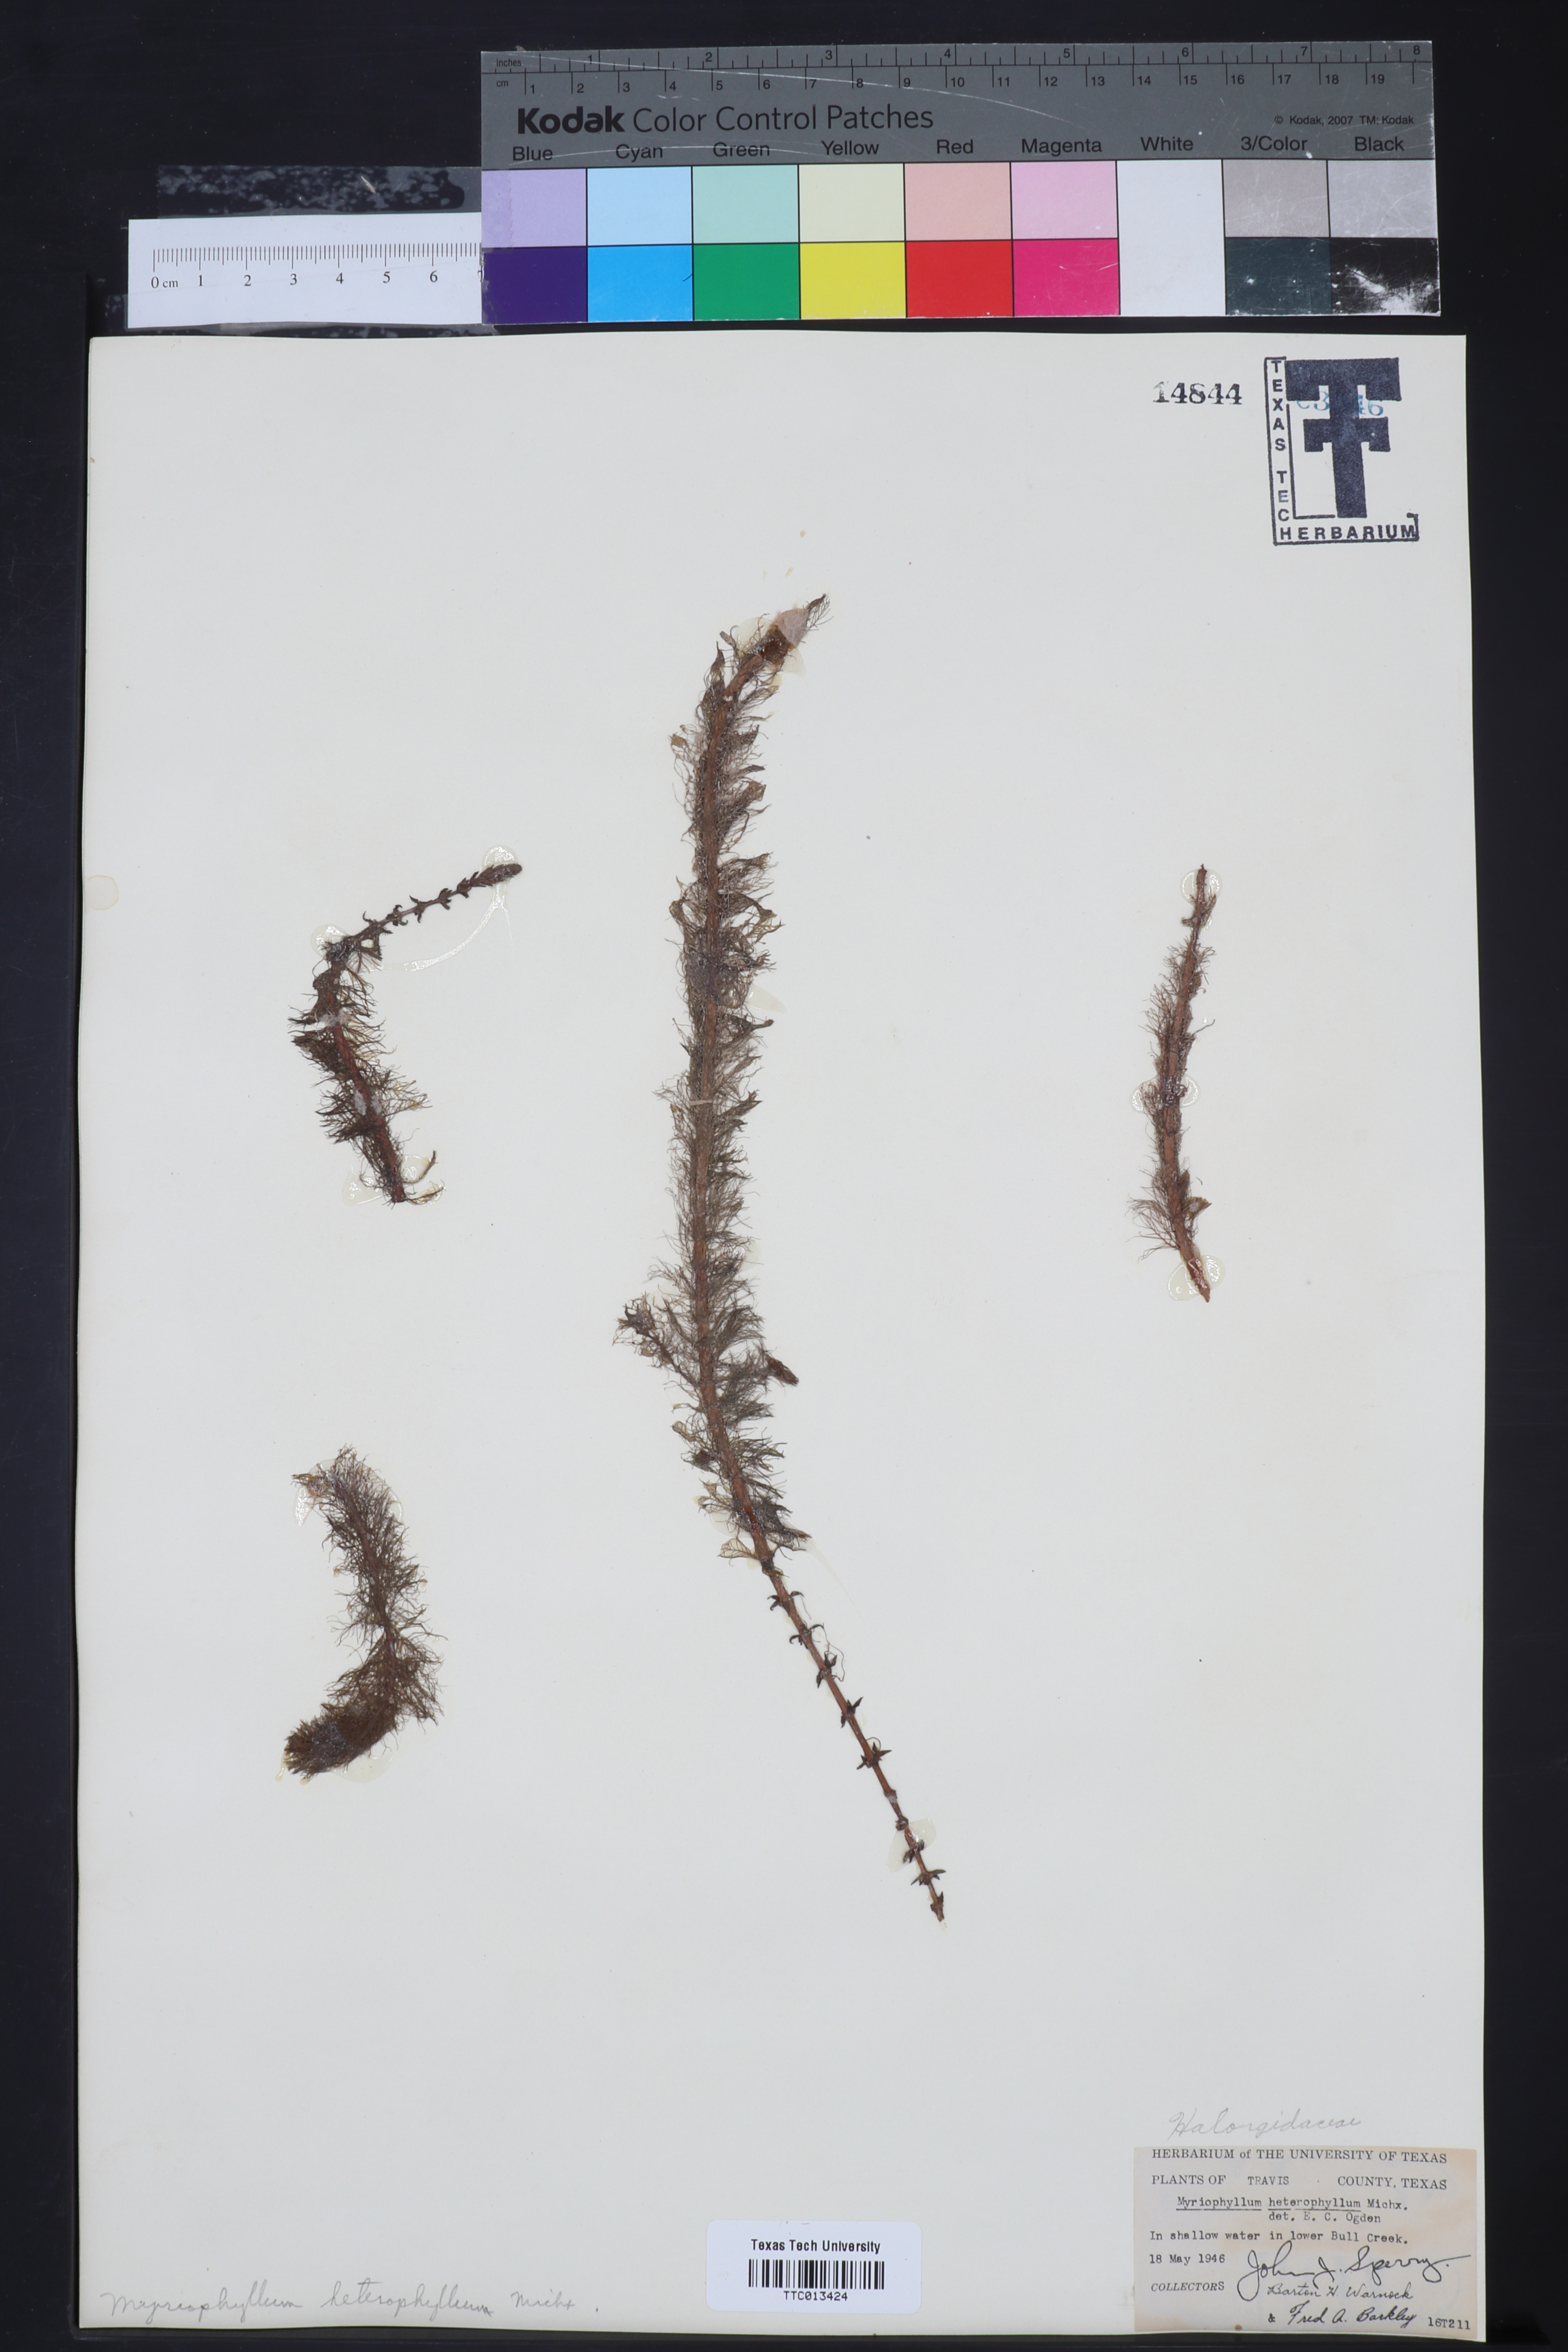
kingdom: Plantae
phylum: Tracheophyta
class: Magnoliopsida
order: Saxifragales
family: Haloragaceae
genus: Myriophyllum
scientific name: Myriophyllum heterophyllum
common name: Variable watermilfoil
